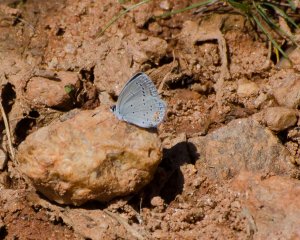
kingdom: Animalia
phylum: Arthropoda
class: Insecta
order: Lepidoptera
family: Lycaenidae
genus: Elkalyce
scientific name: Elkalyce comyntas
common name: Eastern Tailed-Blue
